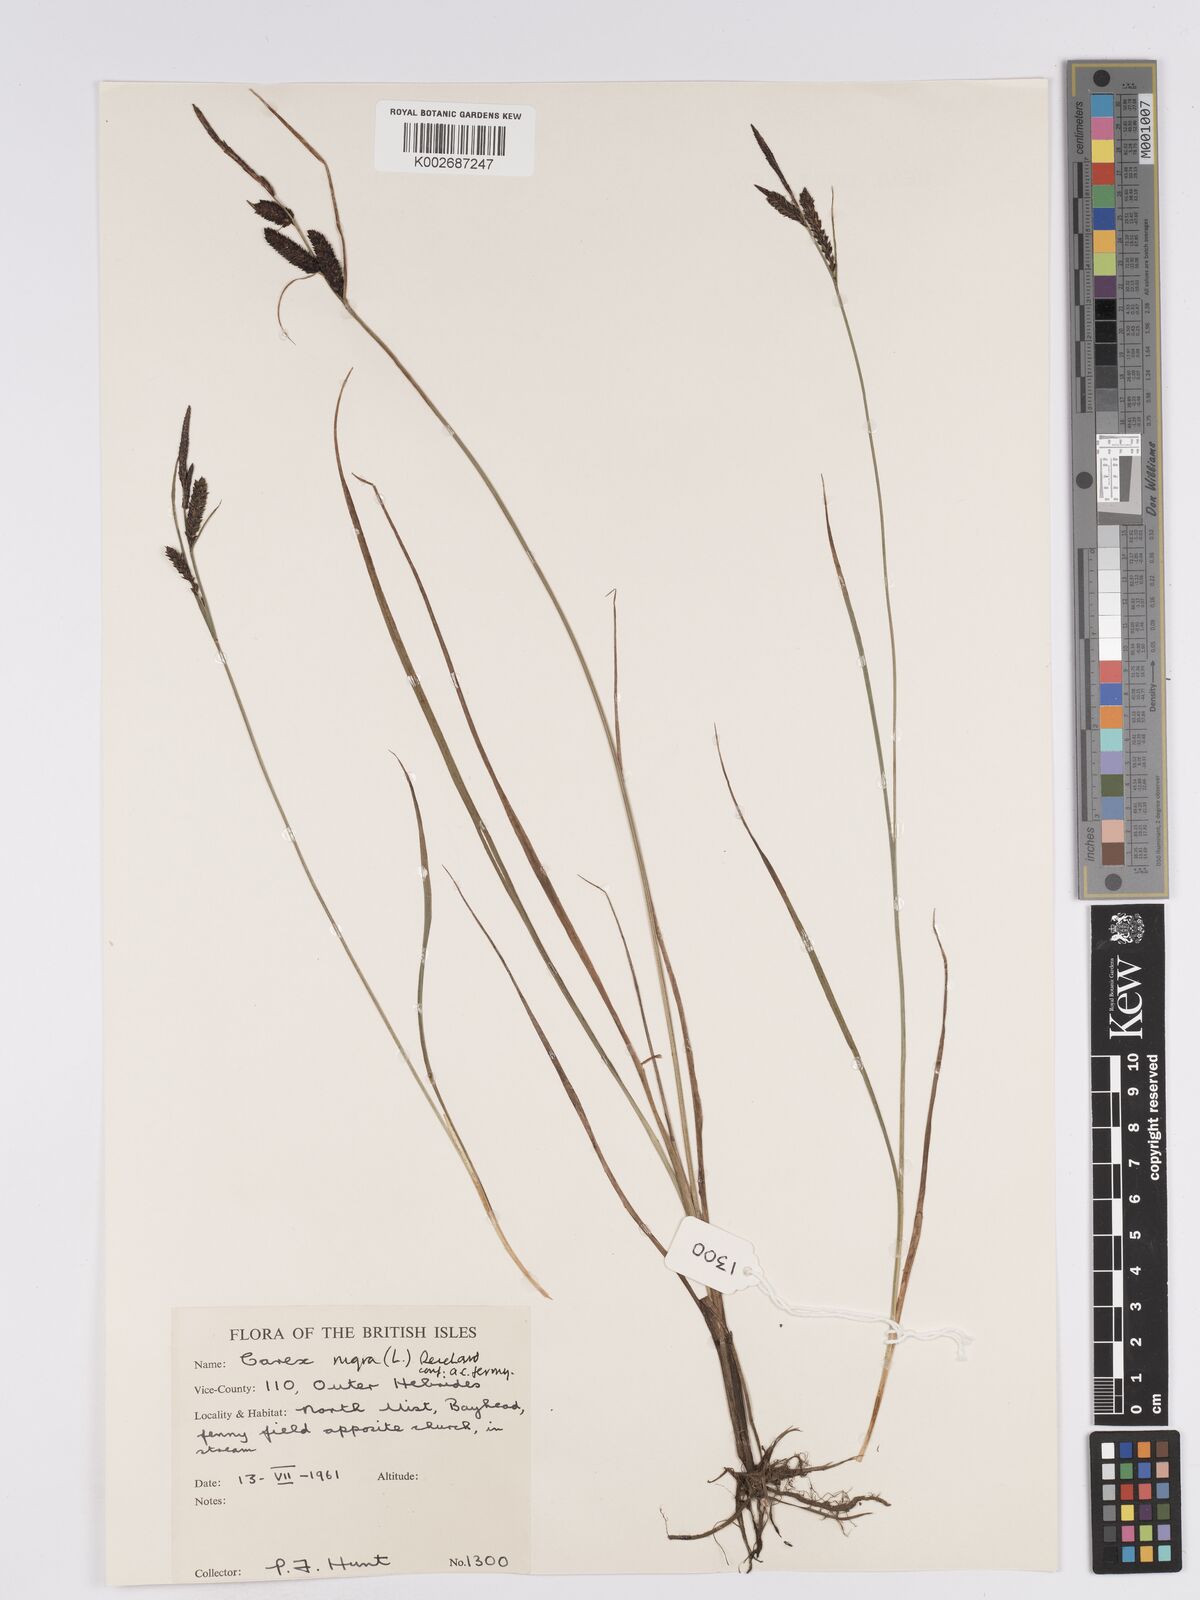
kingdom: Plantae
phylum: Tracheophyta
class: Liliopsida
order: Poales
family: Cyperaceae
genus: Carex
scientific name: Carex nigra
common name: Common sedge
